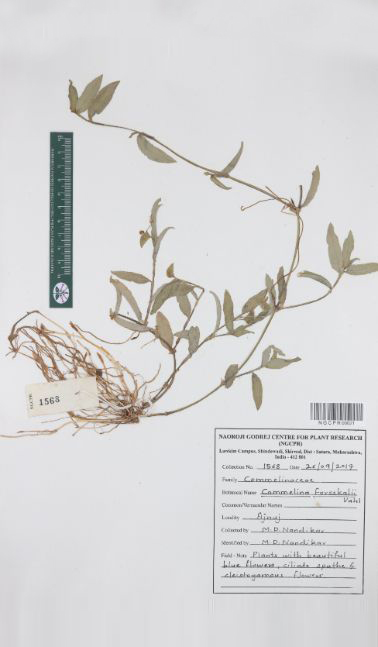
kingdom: Plantae
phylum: Tracheophyta
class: Liliopsida
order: Commelinales
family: Commelinaceae
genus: Commelina
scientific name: Commelina forskaolii
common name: Rat's ear
